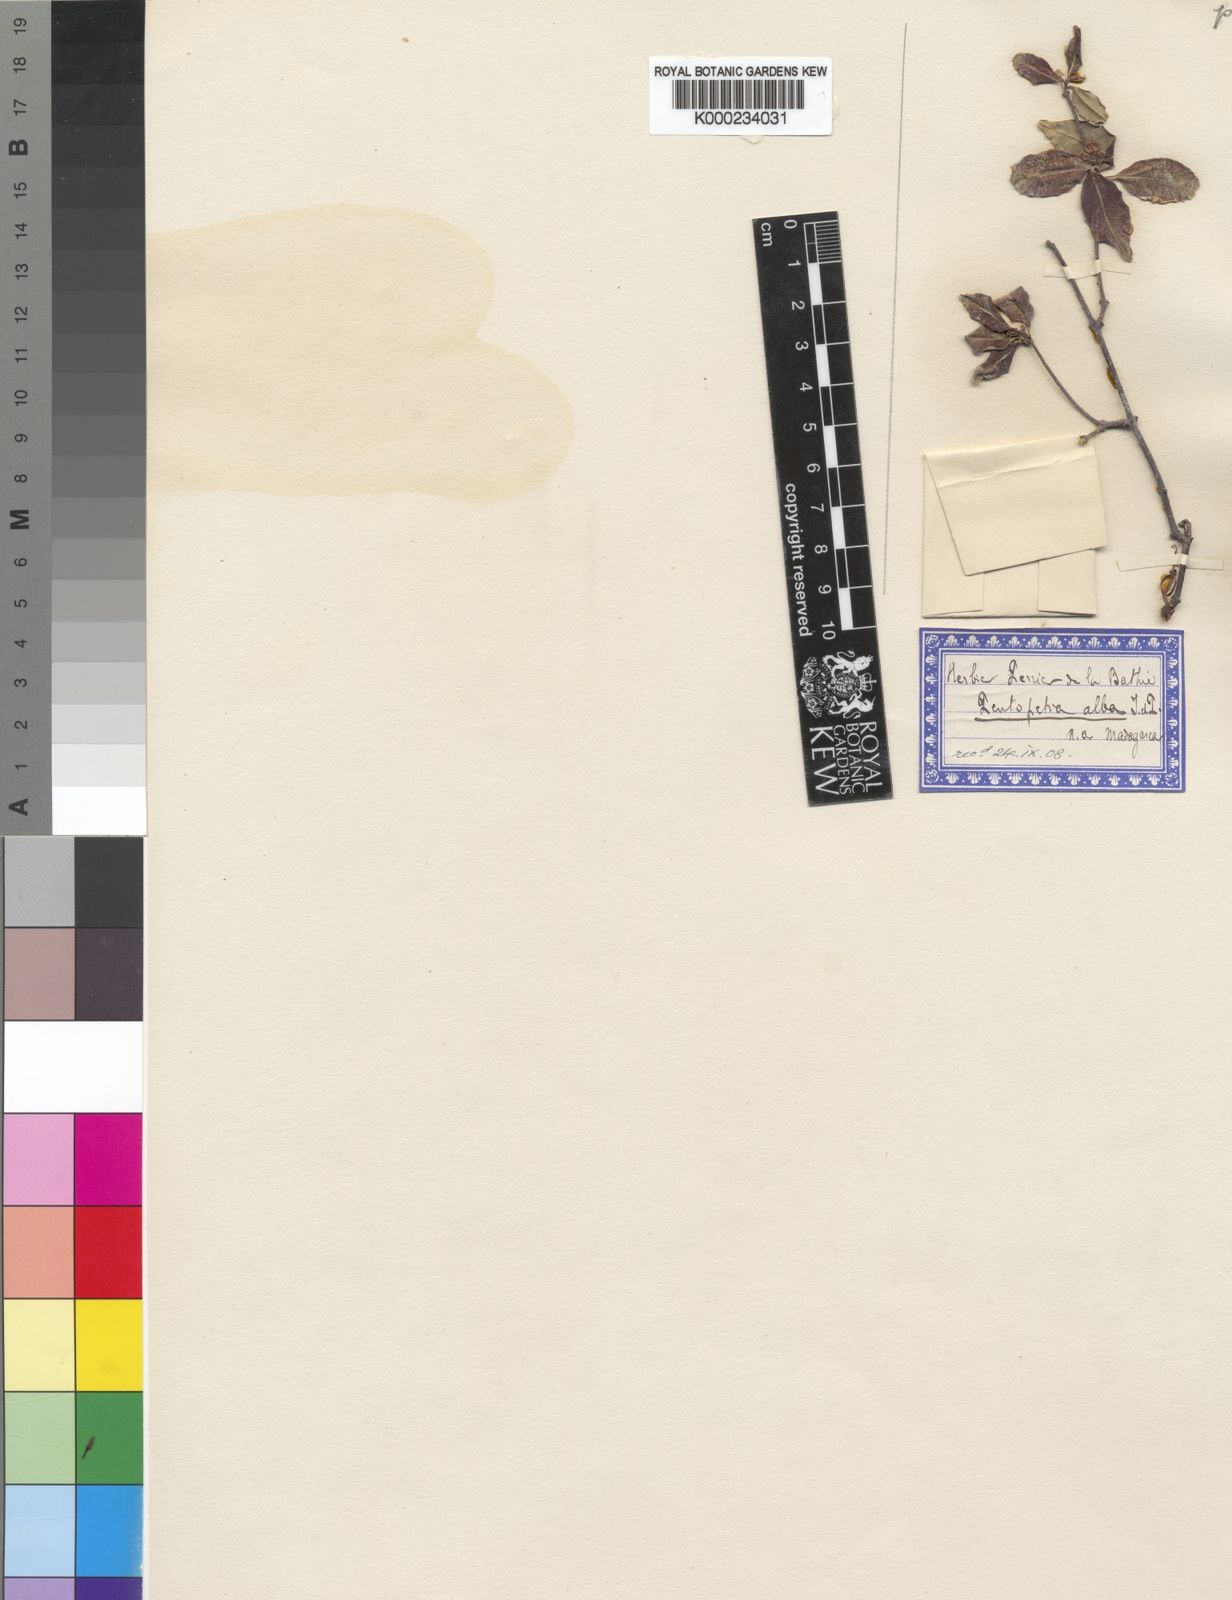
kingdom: Plantae
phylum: Tracheophyta
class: Magnoliopsida
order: Gentianales
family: Apocynaceae
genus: Pentopetia
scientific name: Pentopetia elastica
